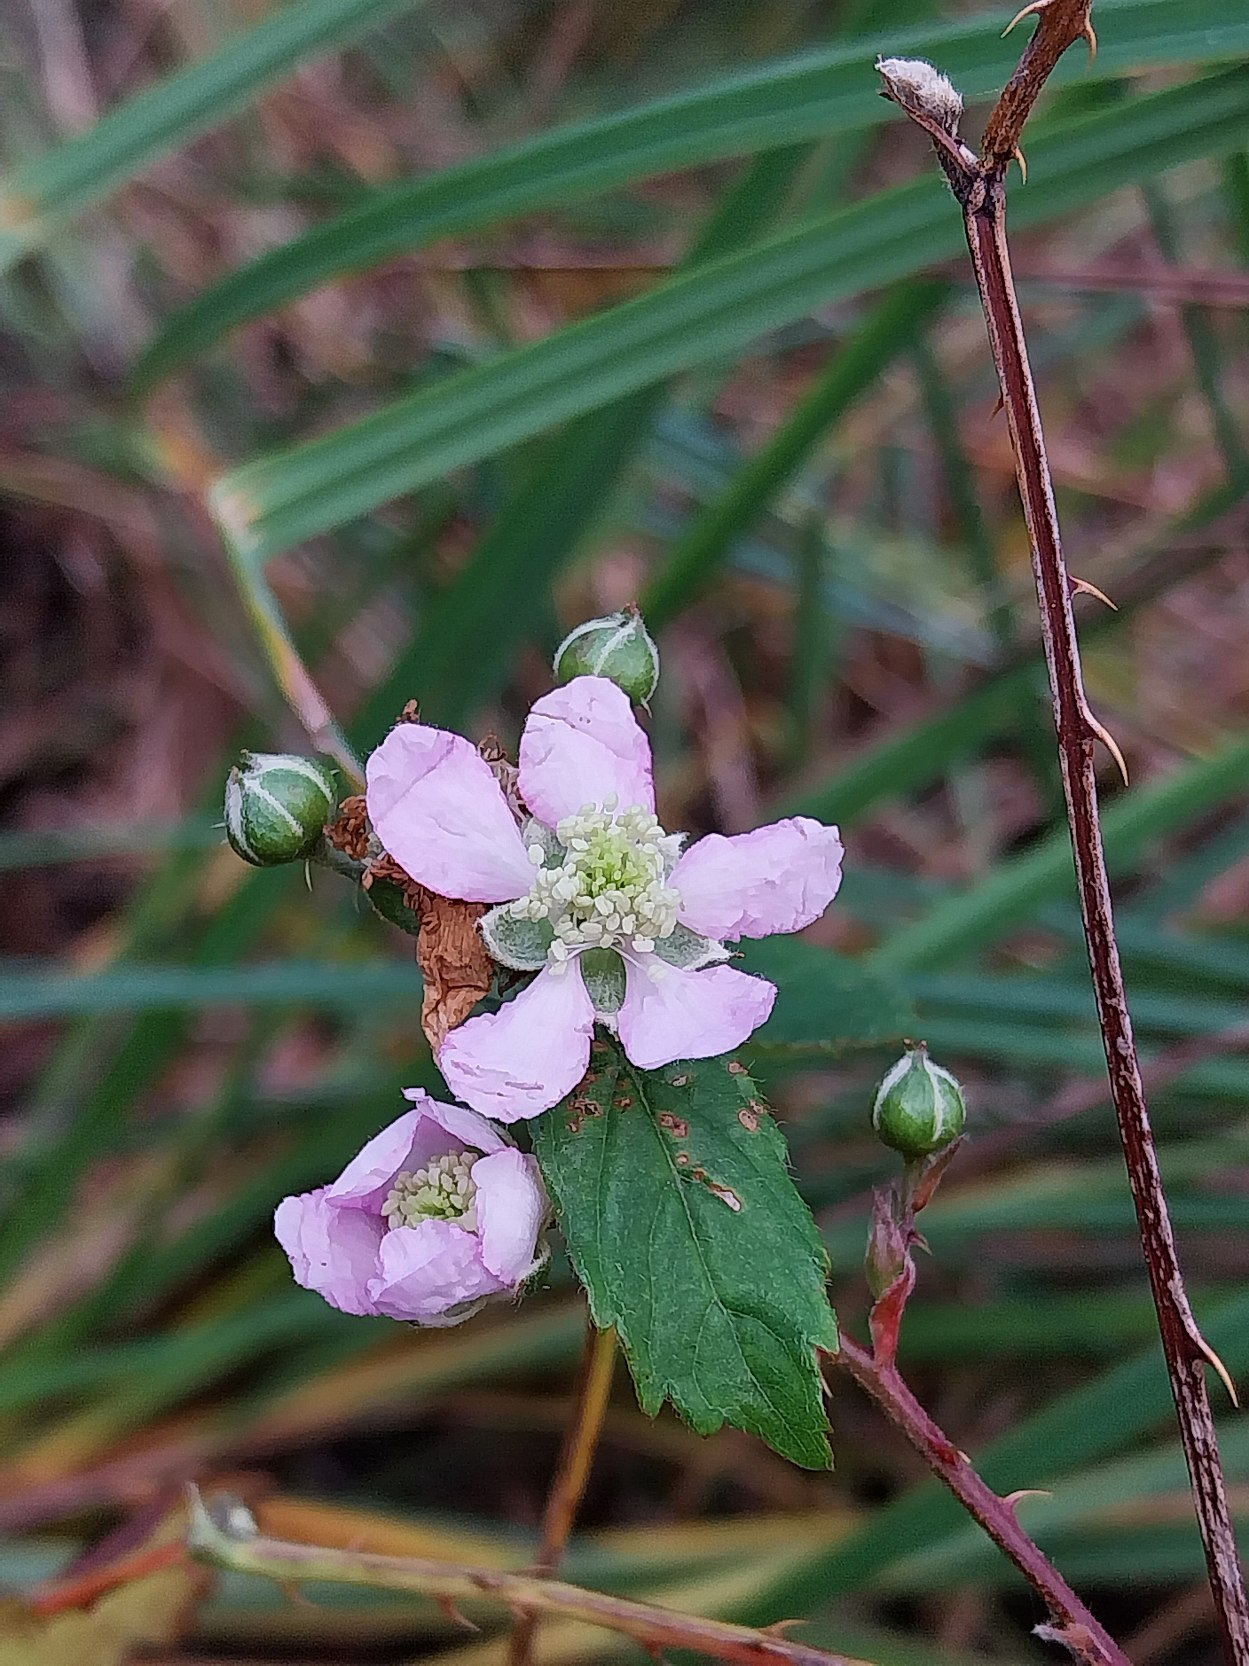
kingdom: Plantae
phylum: Tracheophyta
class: Magnoliopsida
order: Rosales
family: Rosaceae
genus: Rubus
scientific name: Rubus plicatus
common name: Almindelig brombær
